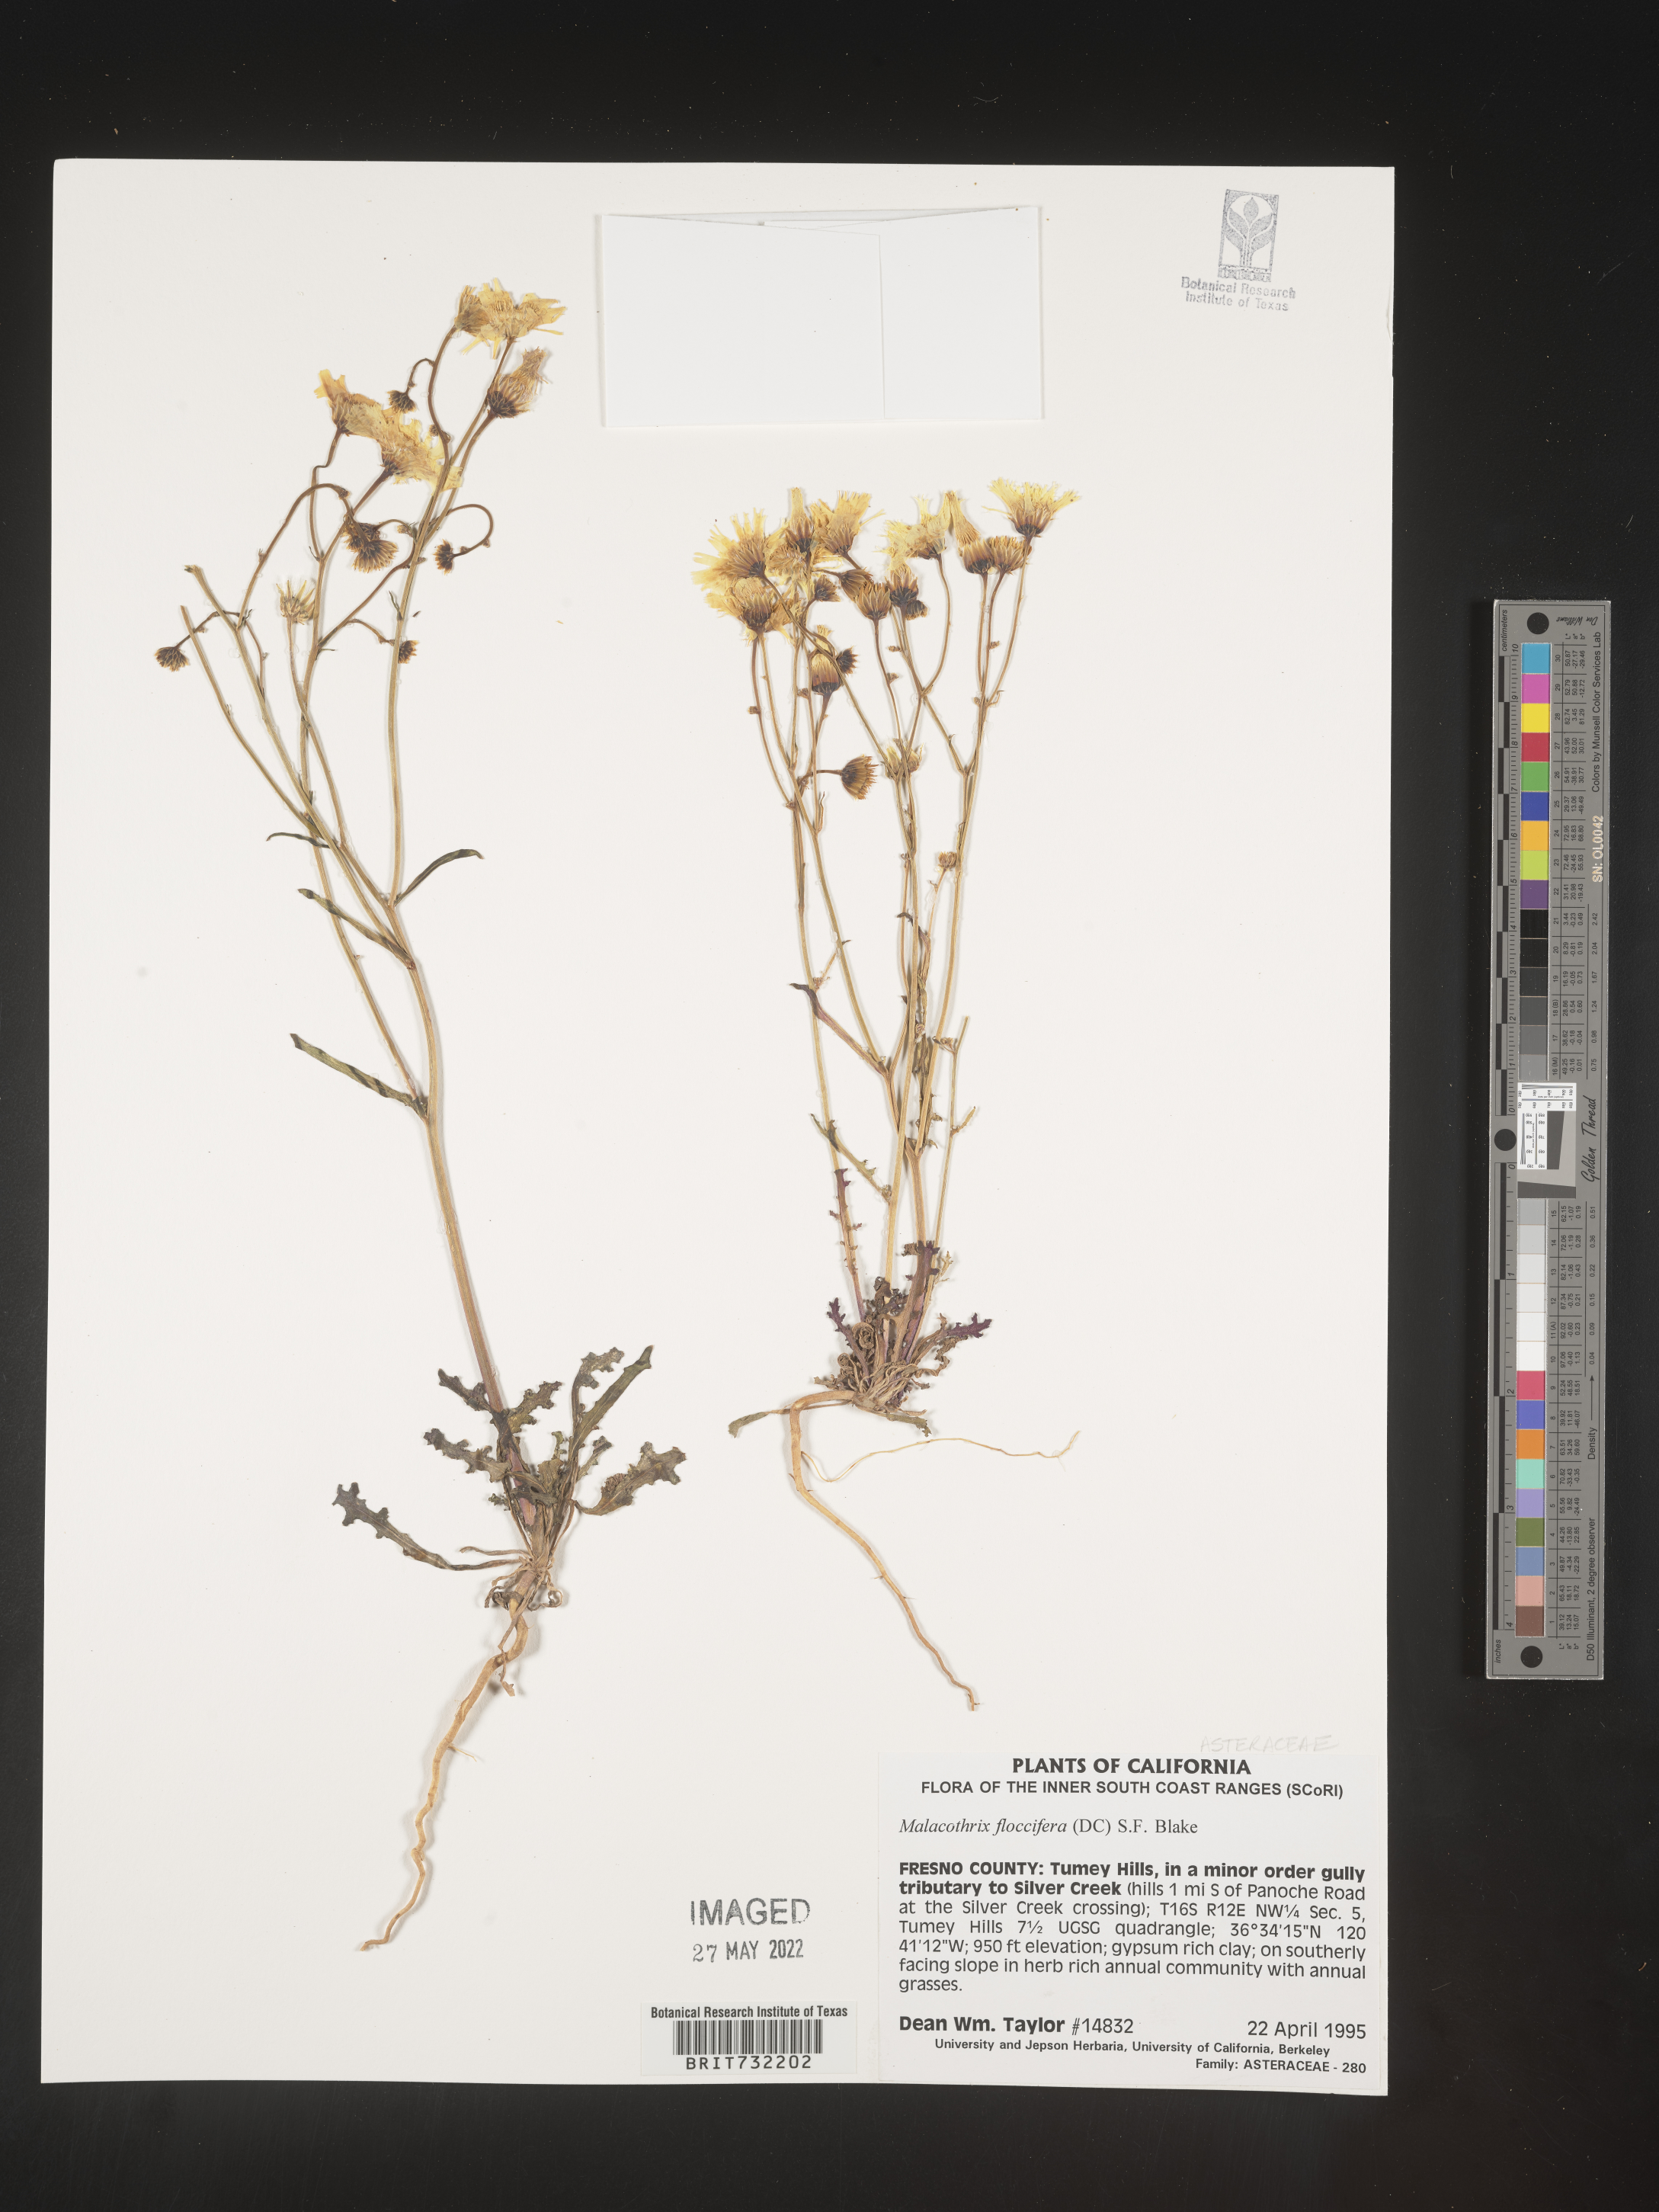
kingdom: Plantae
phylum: Tracheophyta
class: Magnoliopsida
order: Asterales
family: Asteraceae
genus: Malacothrix
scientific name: Malacothrix
